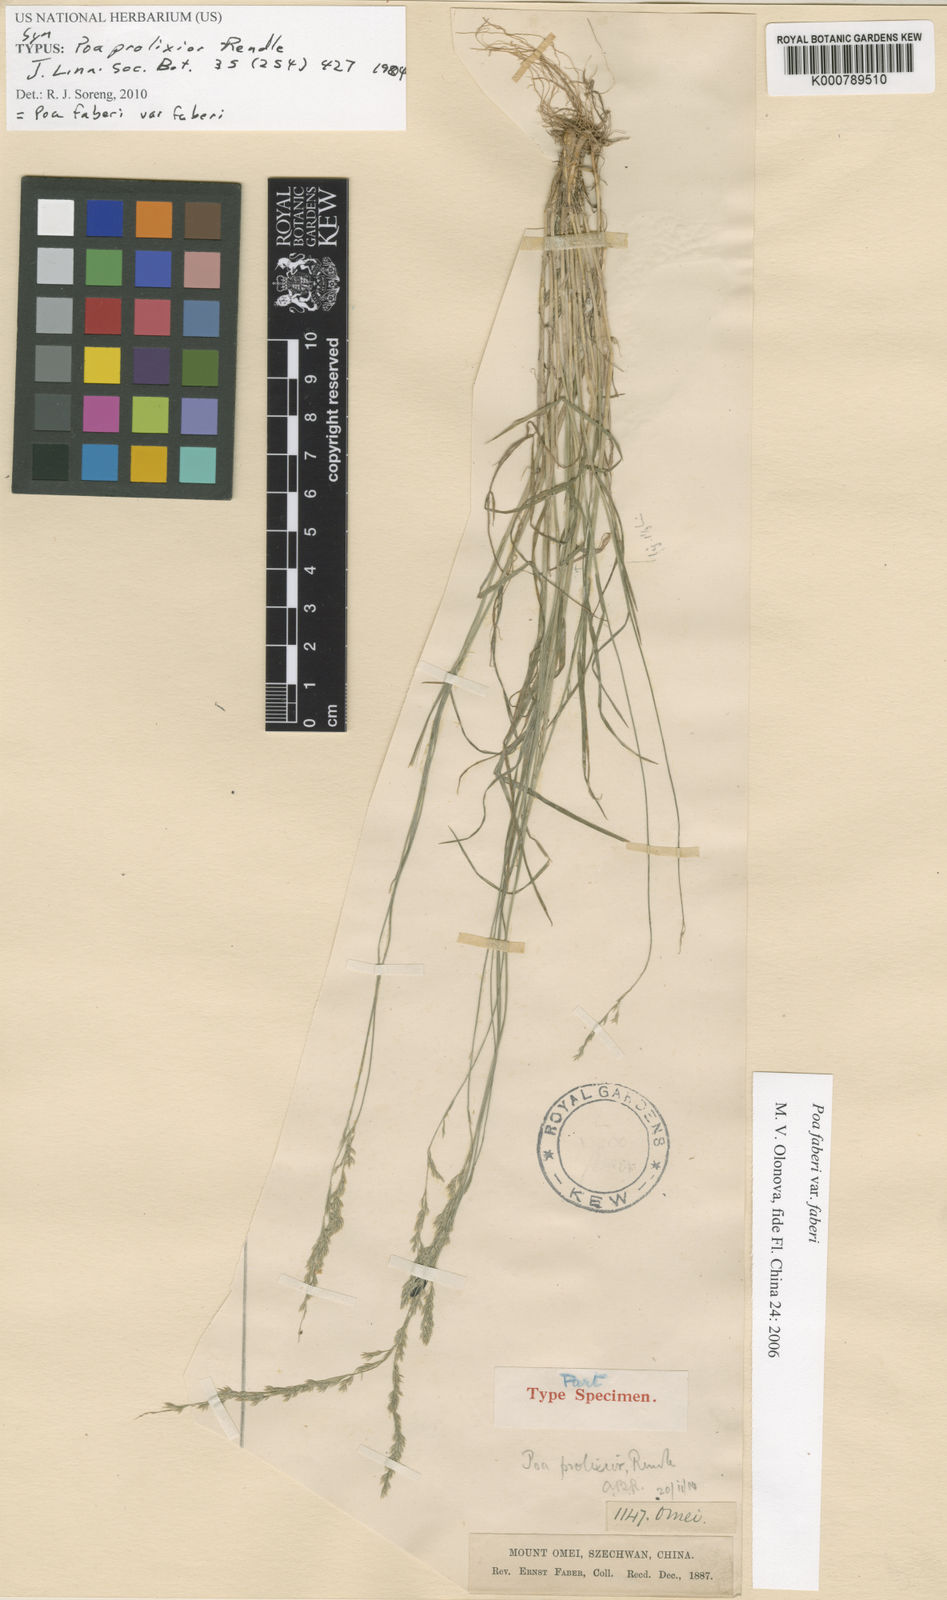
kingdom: Plantae
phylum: Tracheophyta
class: Liliopsida
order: Poales
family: Poaceae
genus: Poa
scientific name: Poa faberi
